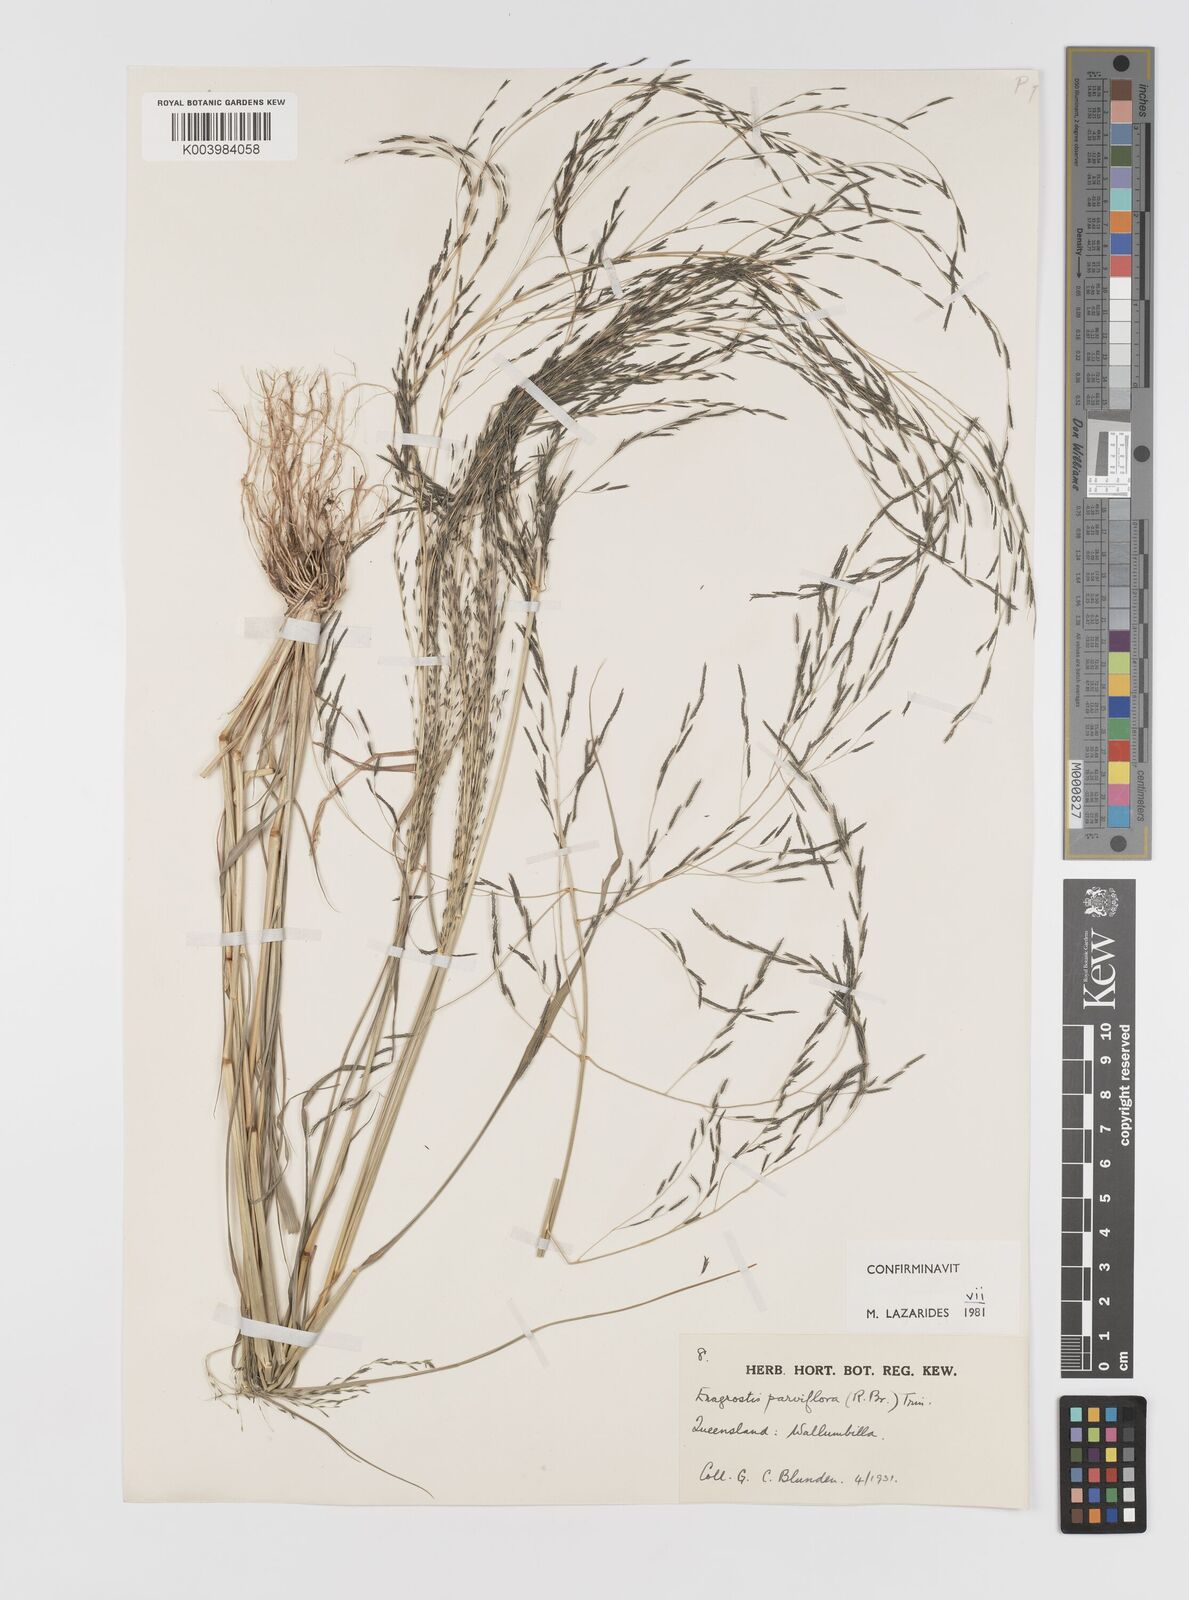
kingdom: Plantae
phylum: Tracheophyta
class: Liliopsida
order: Poales
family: Poaceae
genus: Eragrostis
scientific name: Eragrostis parviflora
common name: Weeping love-grass
